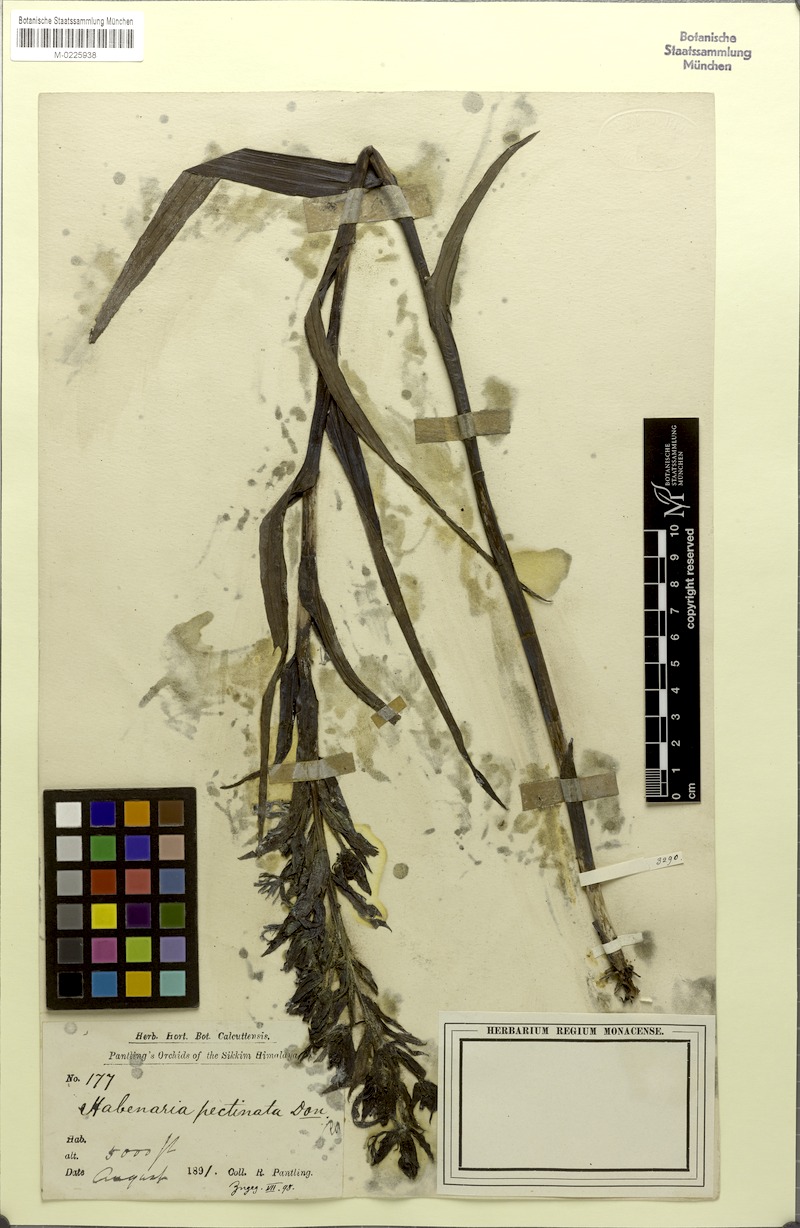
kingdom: Plantae
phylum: Tracheophyta
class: Liliopsida
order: Asparagales
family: Orchidaceae
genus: Habenaria
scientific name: Habenaria pectinata
